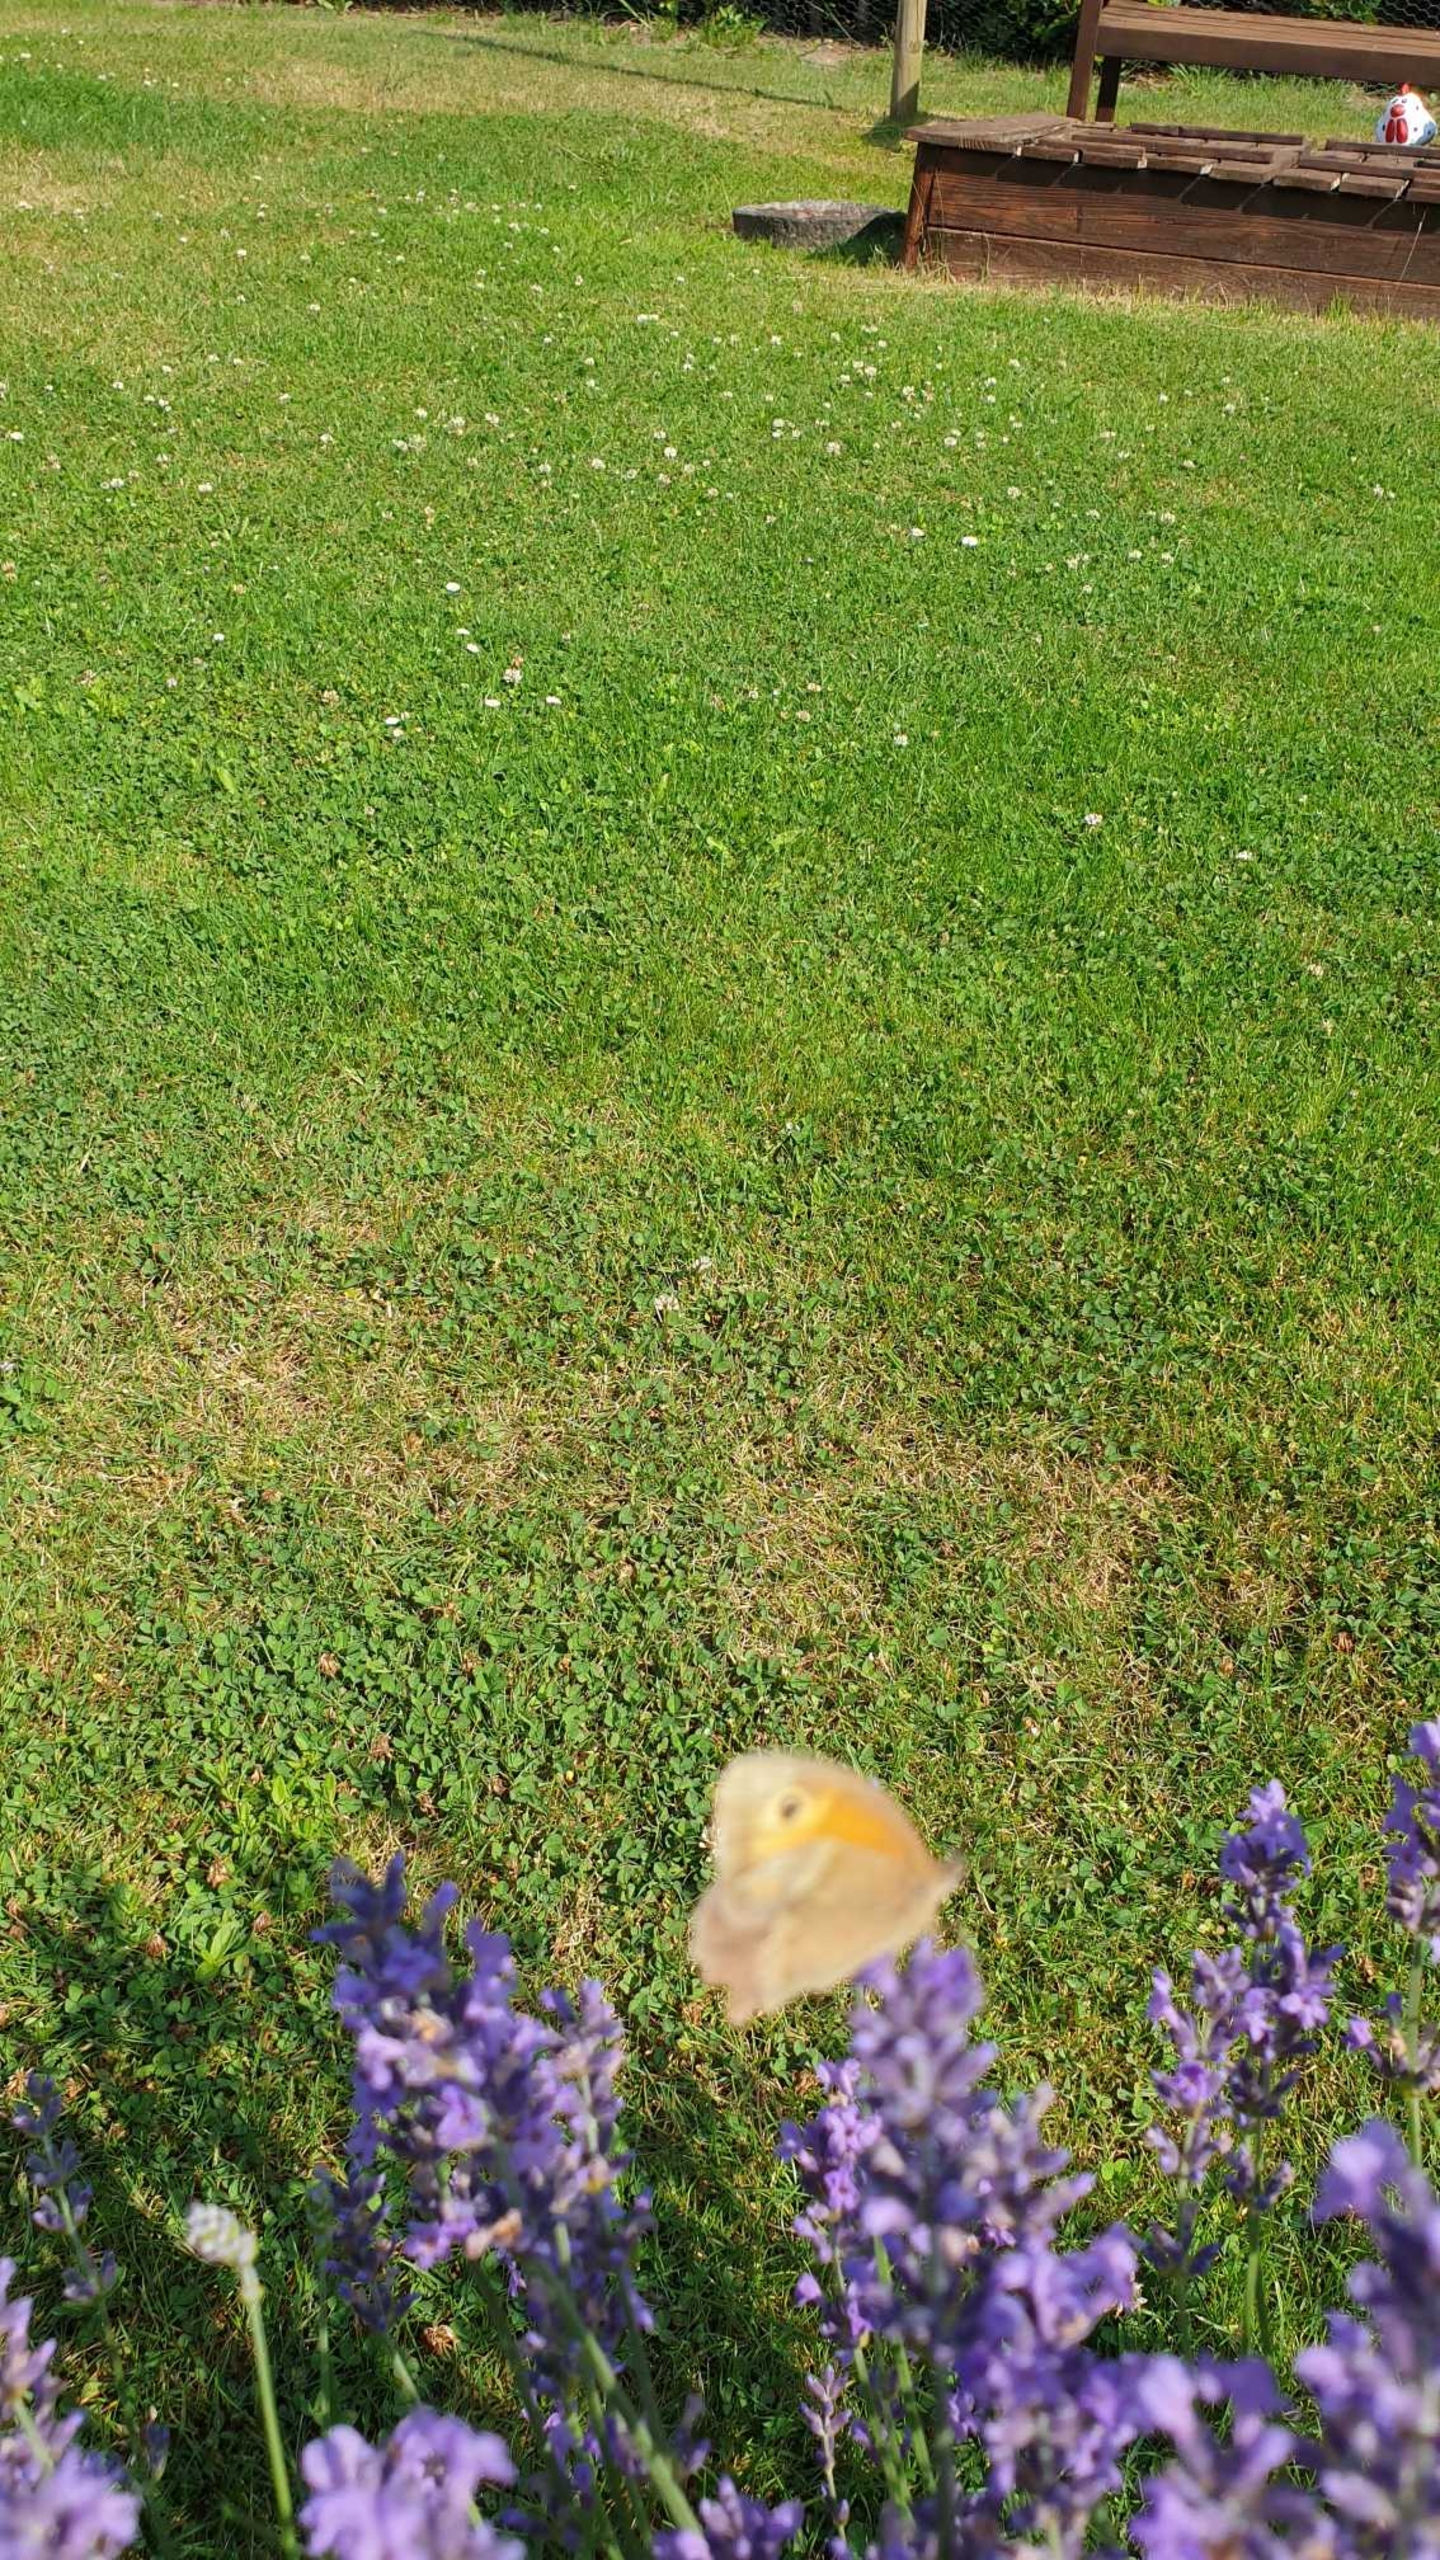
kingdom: Animalia
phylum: Arthropoda
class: Insecta
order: Lepidoptera
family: Nymphalidae
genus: Maniola
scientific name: Maniola jurtina
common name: Græsrandøje
